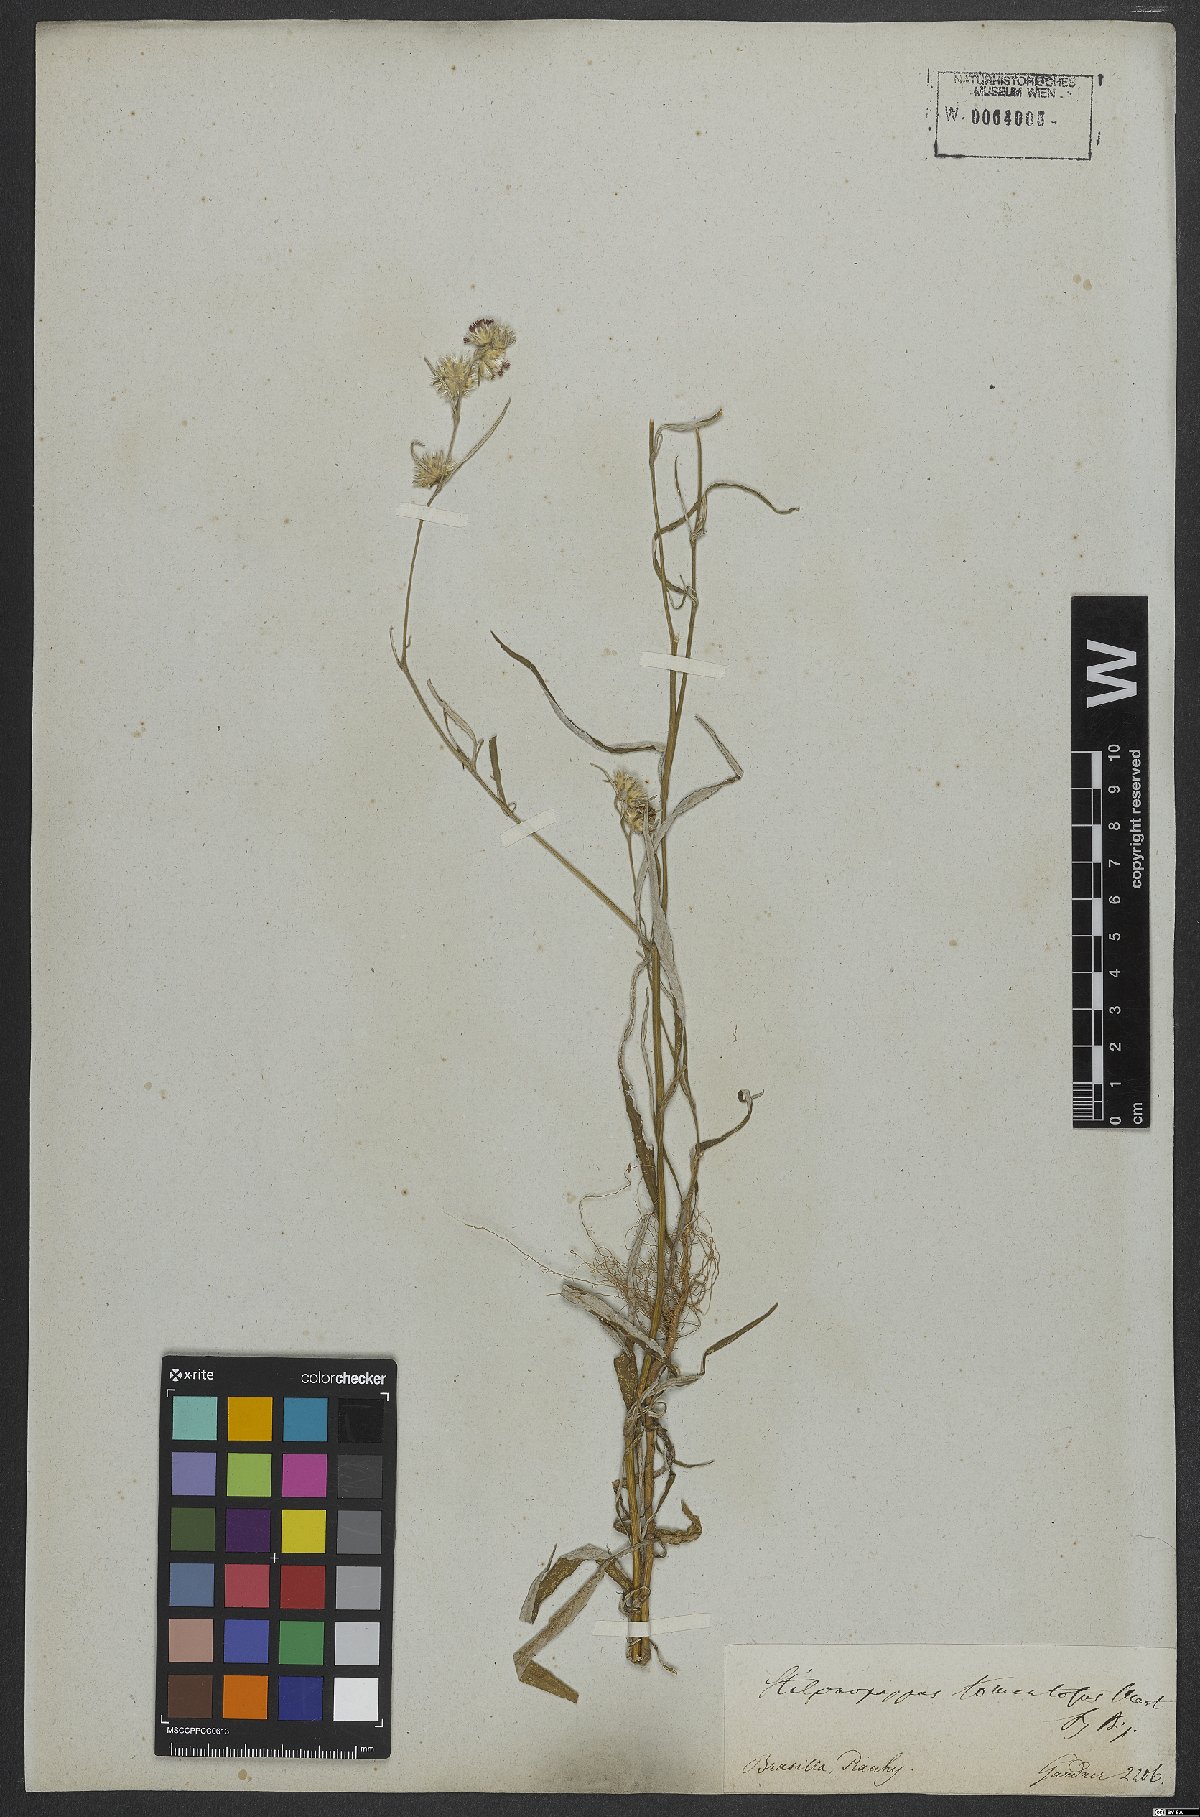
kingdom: Plantae
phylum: Tracheophyta
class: Magnoliopsida
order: Asterales
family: Asteraceae
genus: Stilpnopappus
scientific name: Stilpnopappus tomentosus
